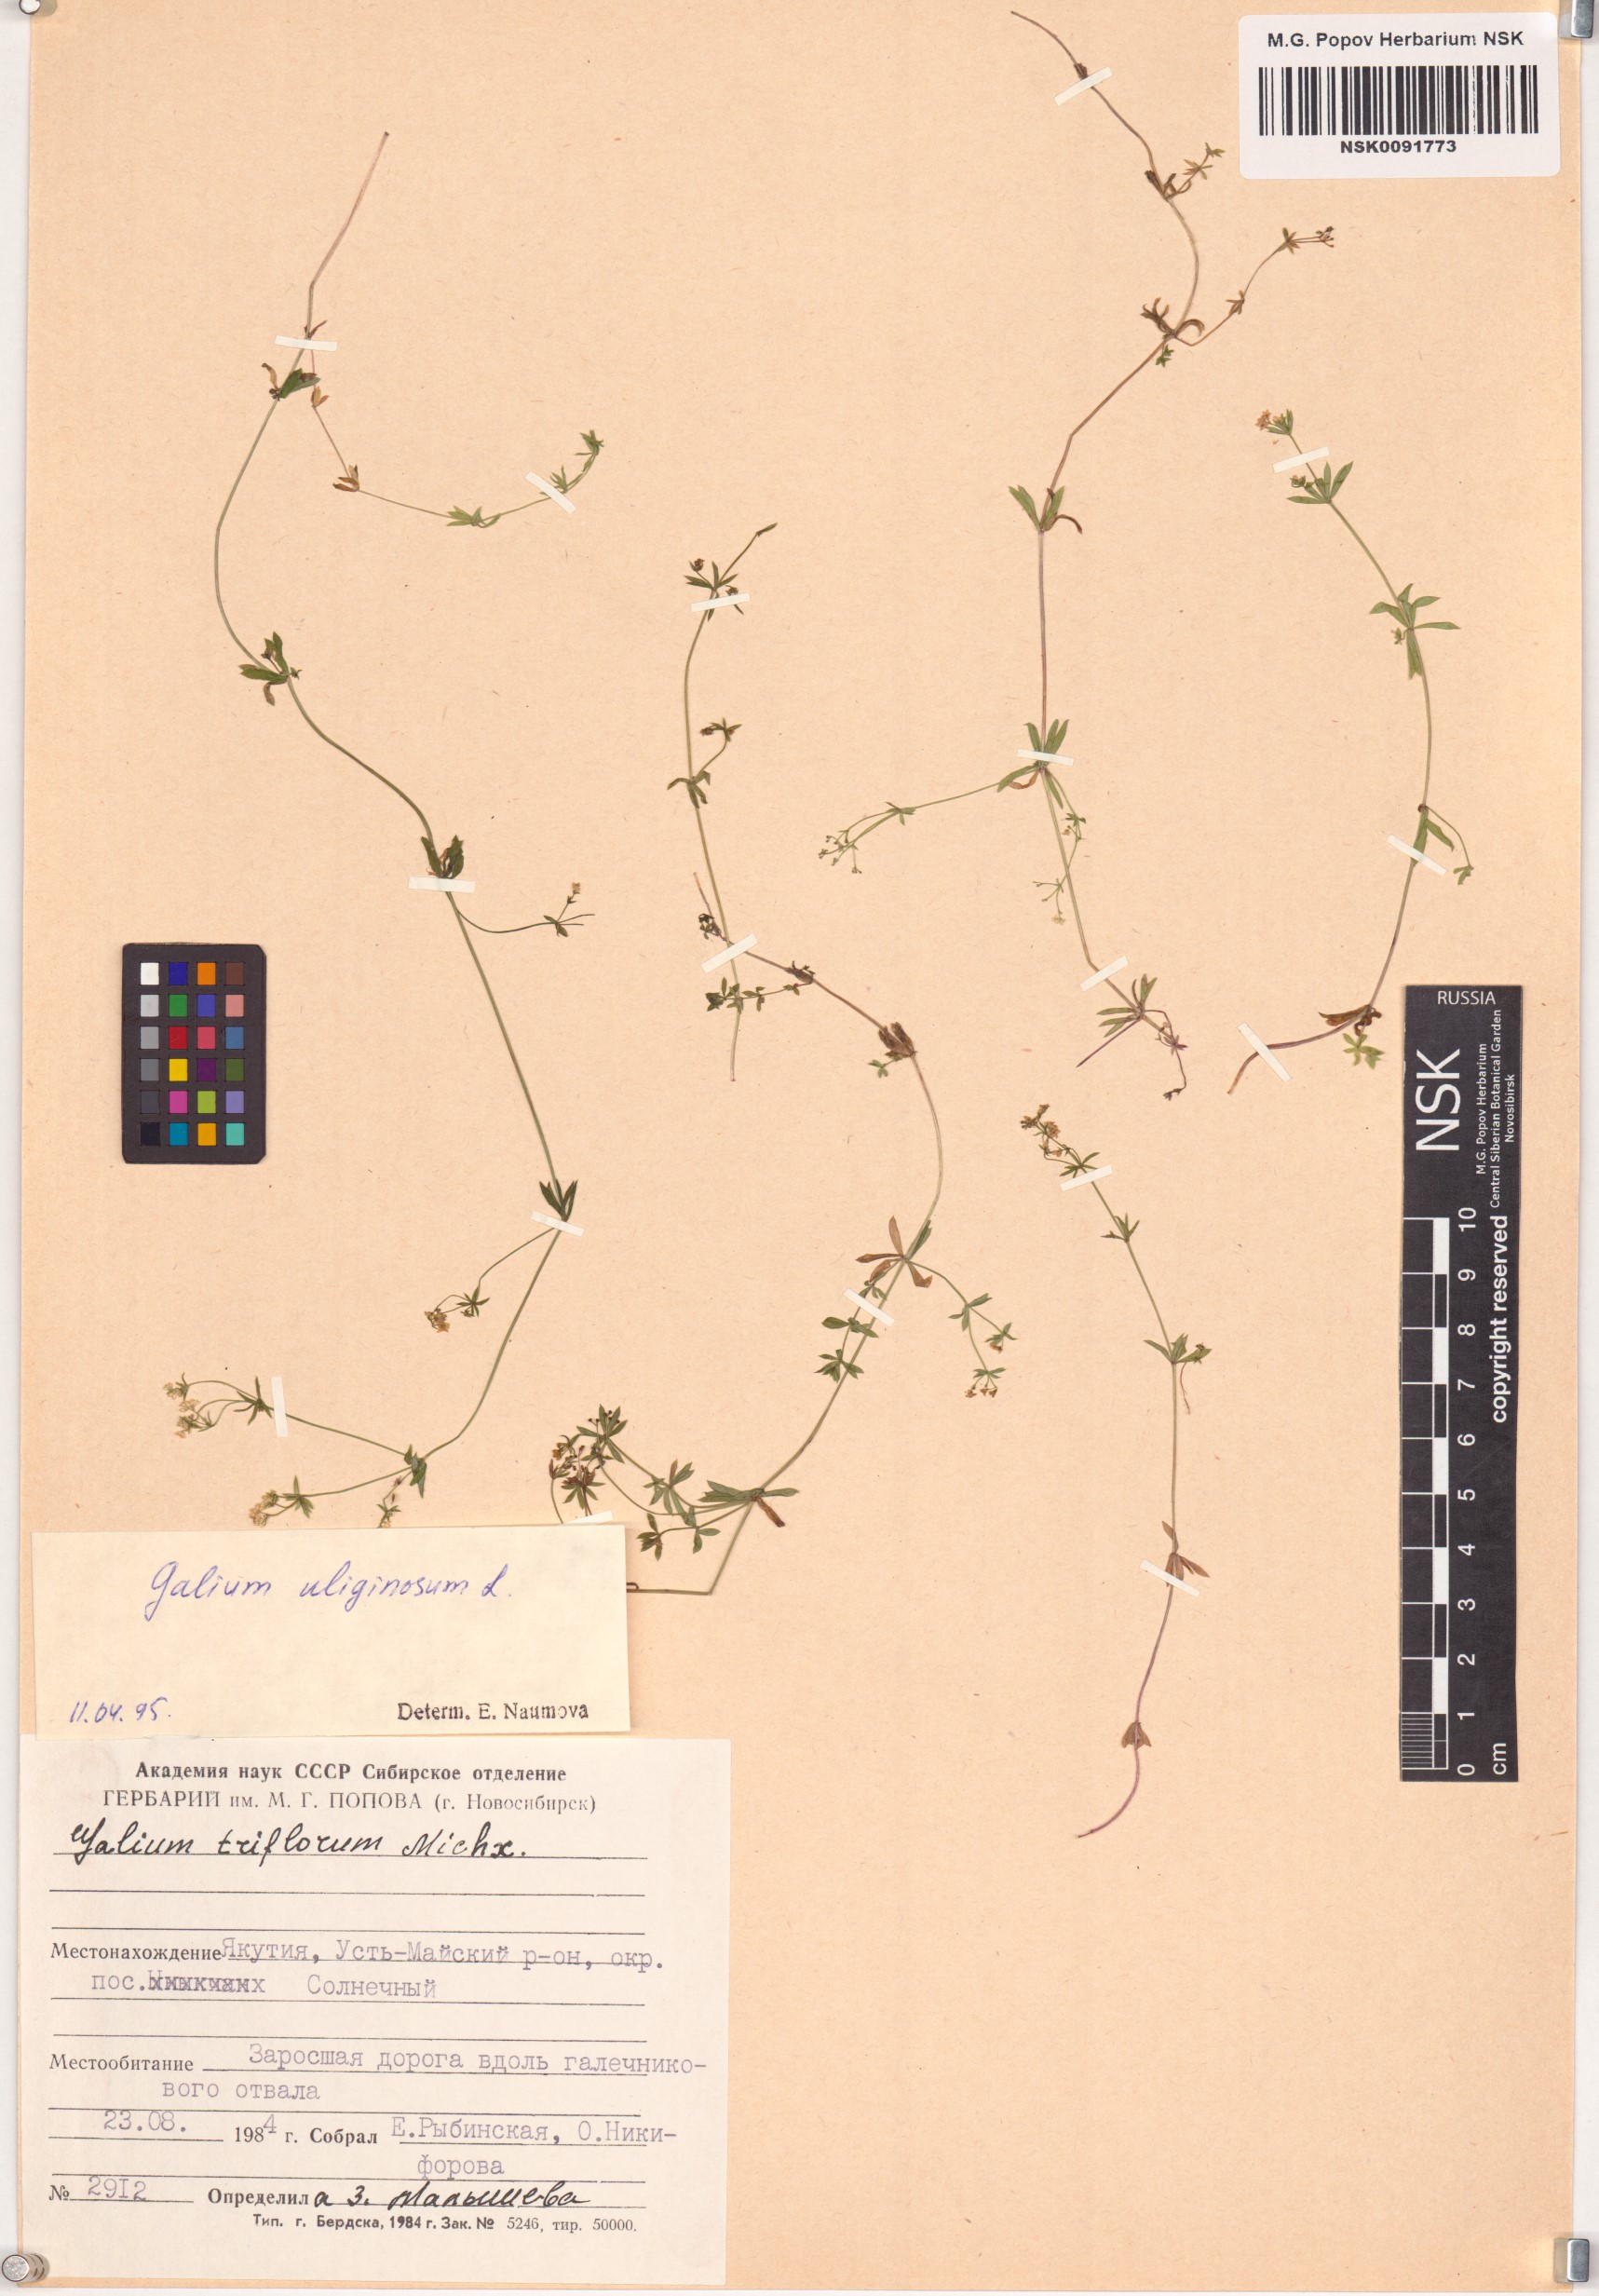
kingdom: Plantae
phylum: Tracheophyta
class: Magnoliopsida
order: Gentianales
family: Rubiaceae
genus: Galium
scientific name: Galium uliginosum
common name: Fen bedstraw
